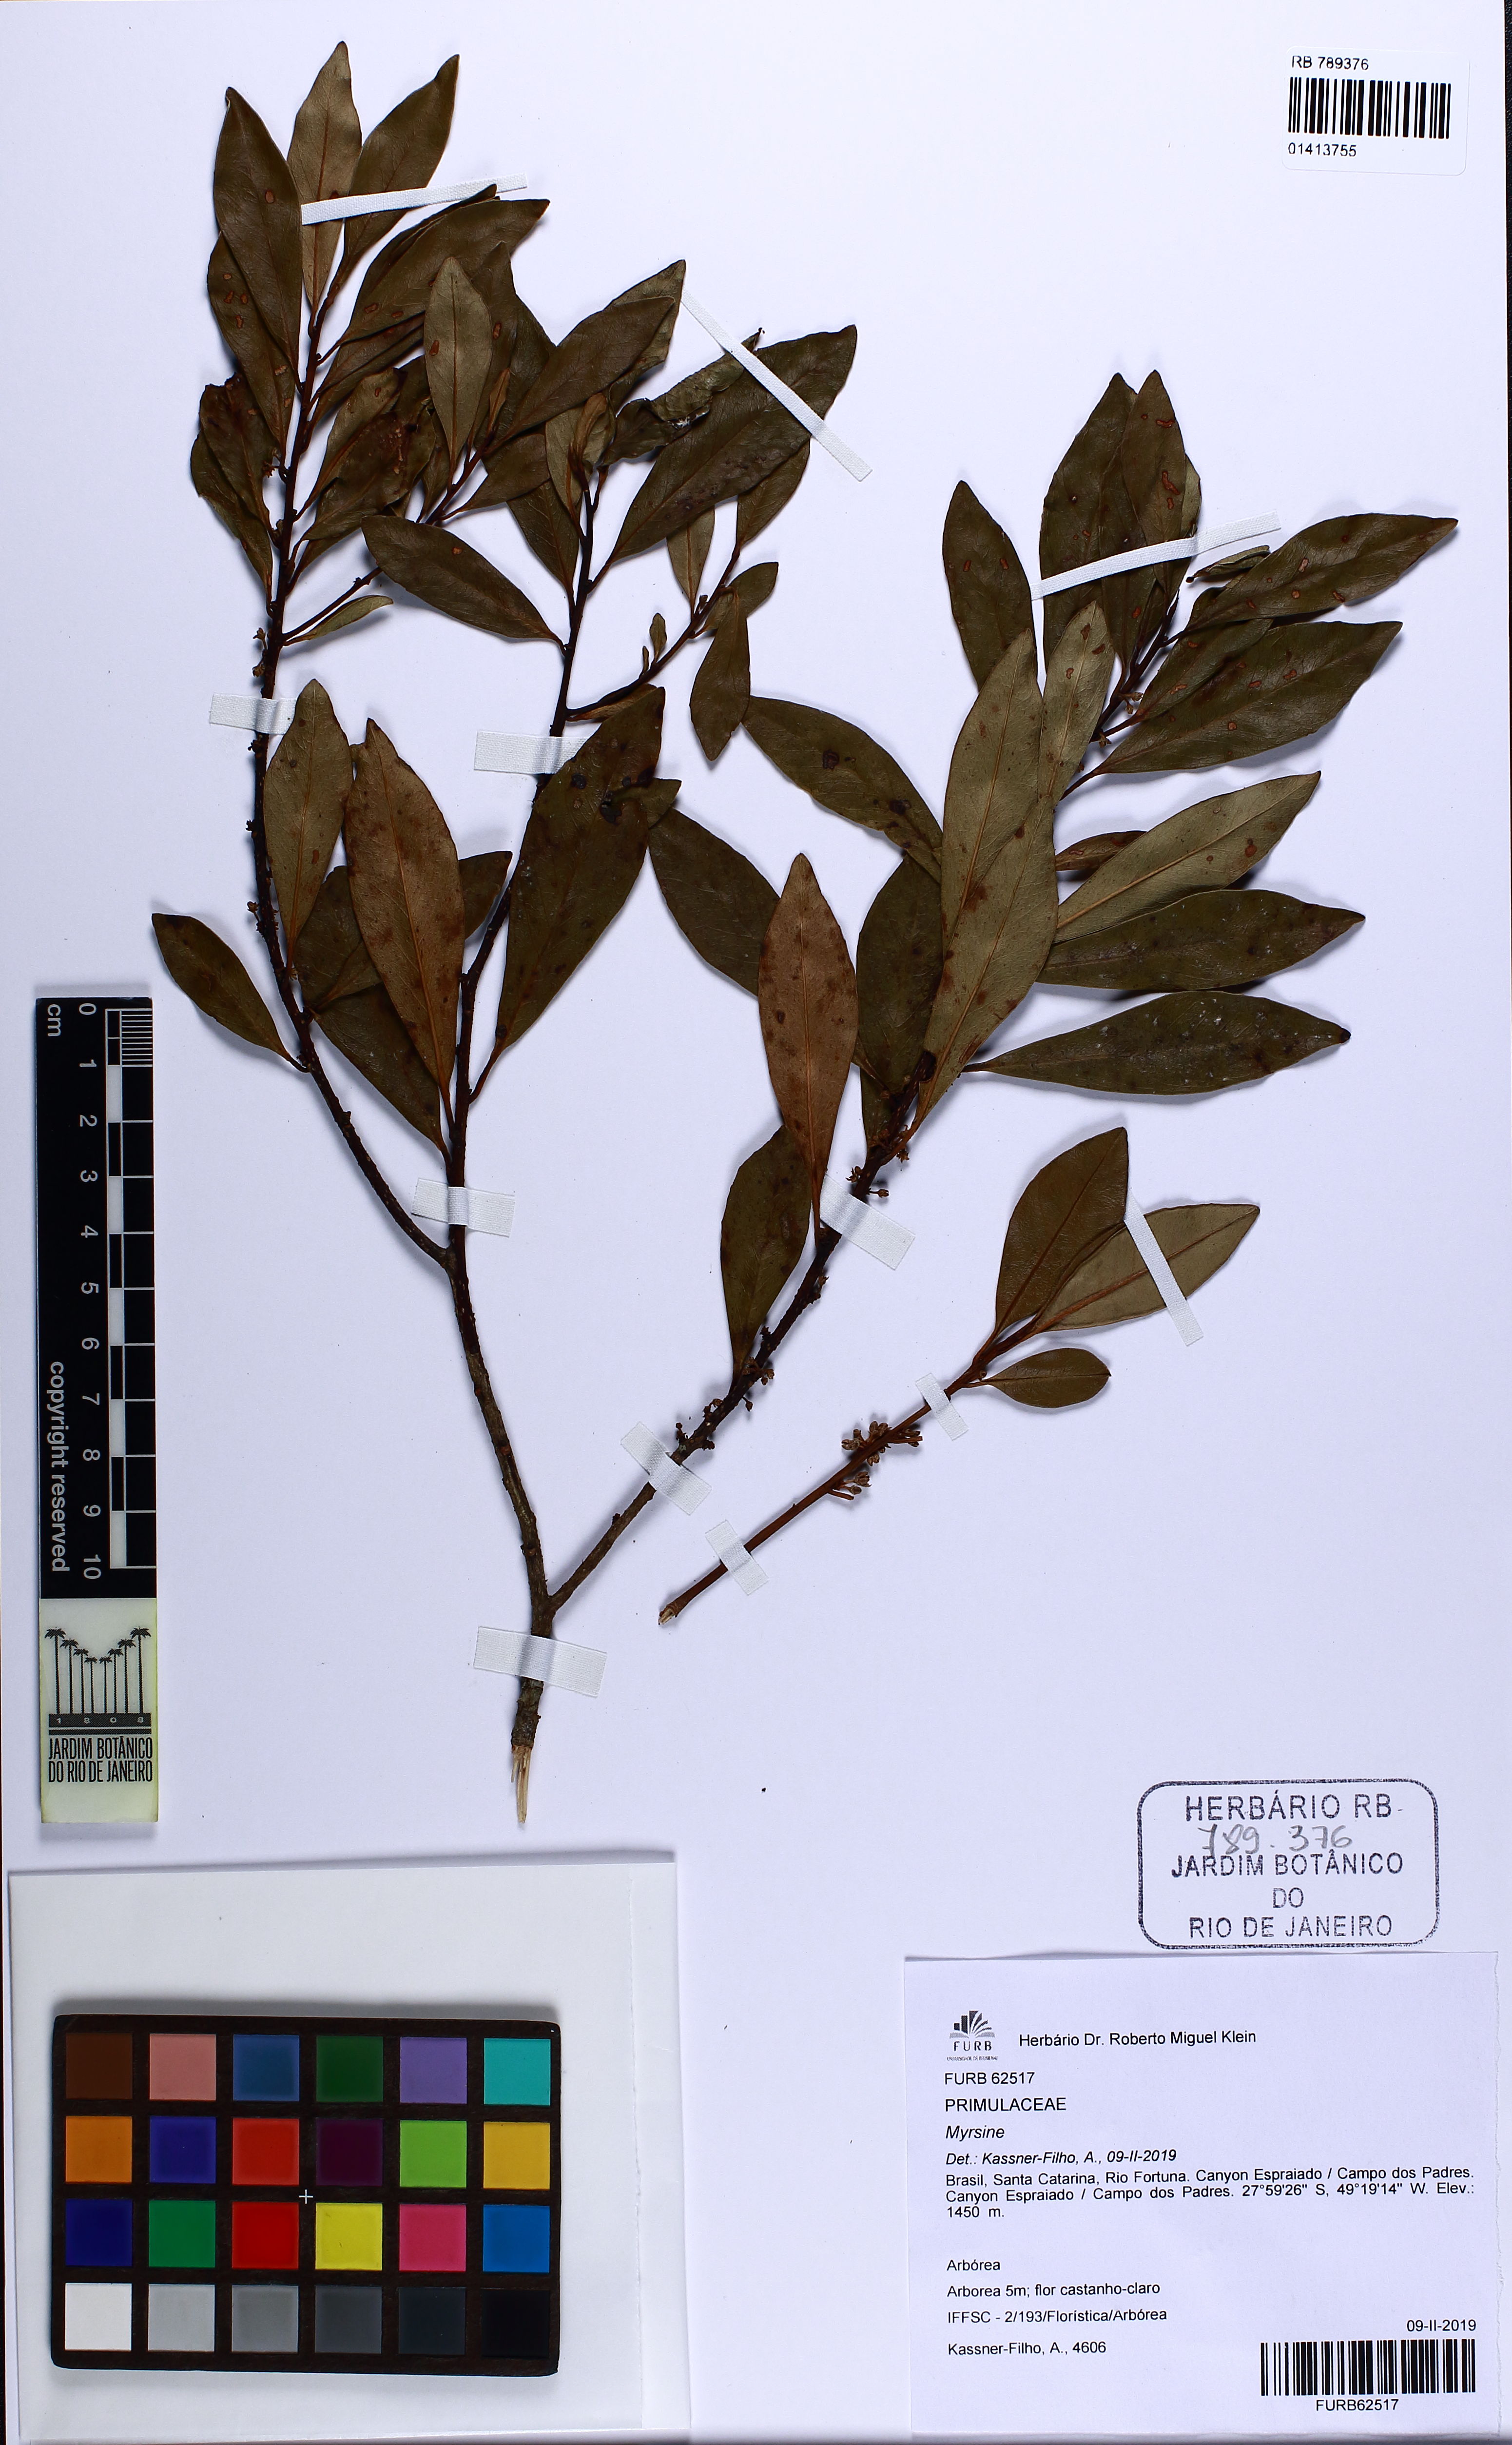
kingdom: Plantae
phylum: Tracheophyta
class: Magnoliopsida
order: Ericales
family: Primulaceae
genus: Myrsine
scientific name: Myrsine
